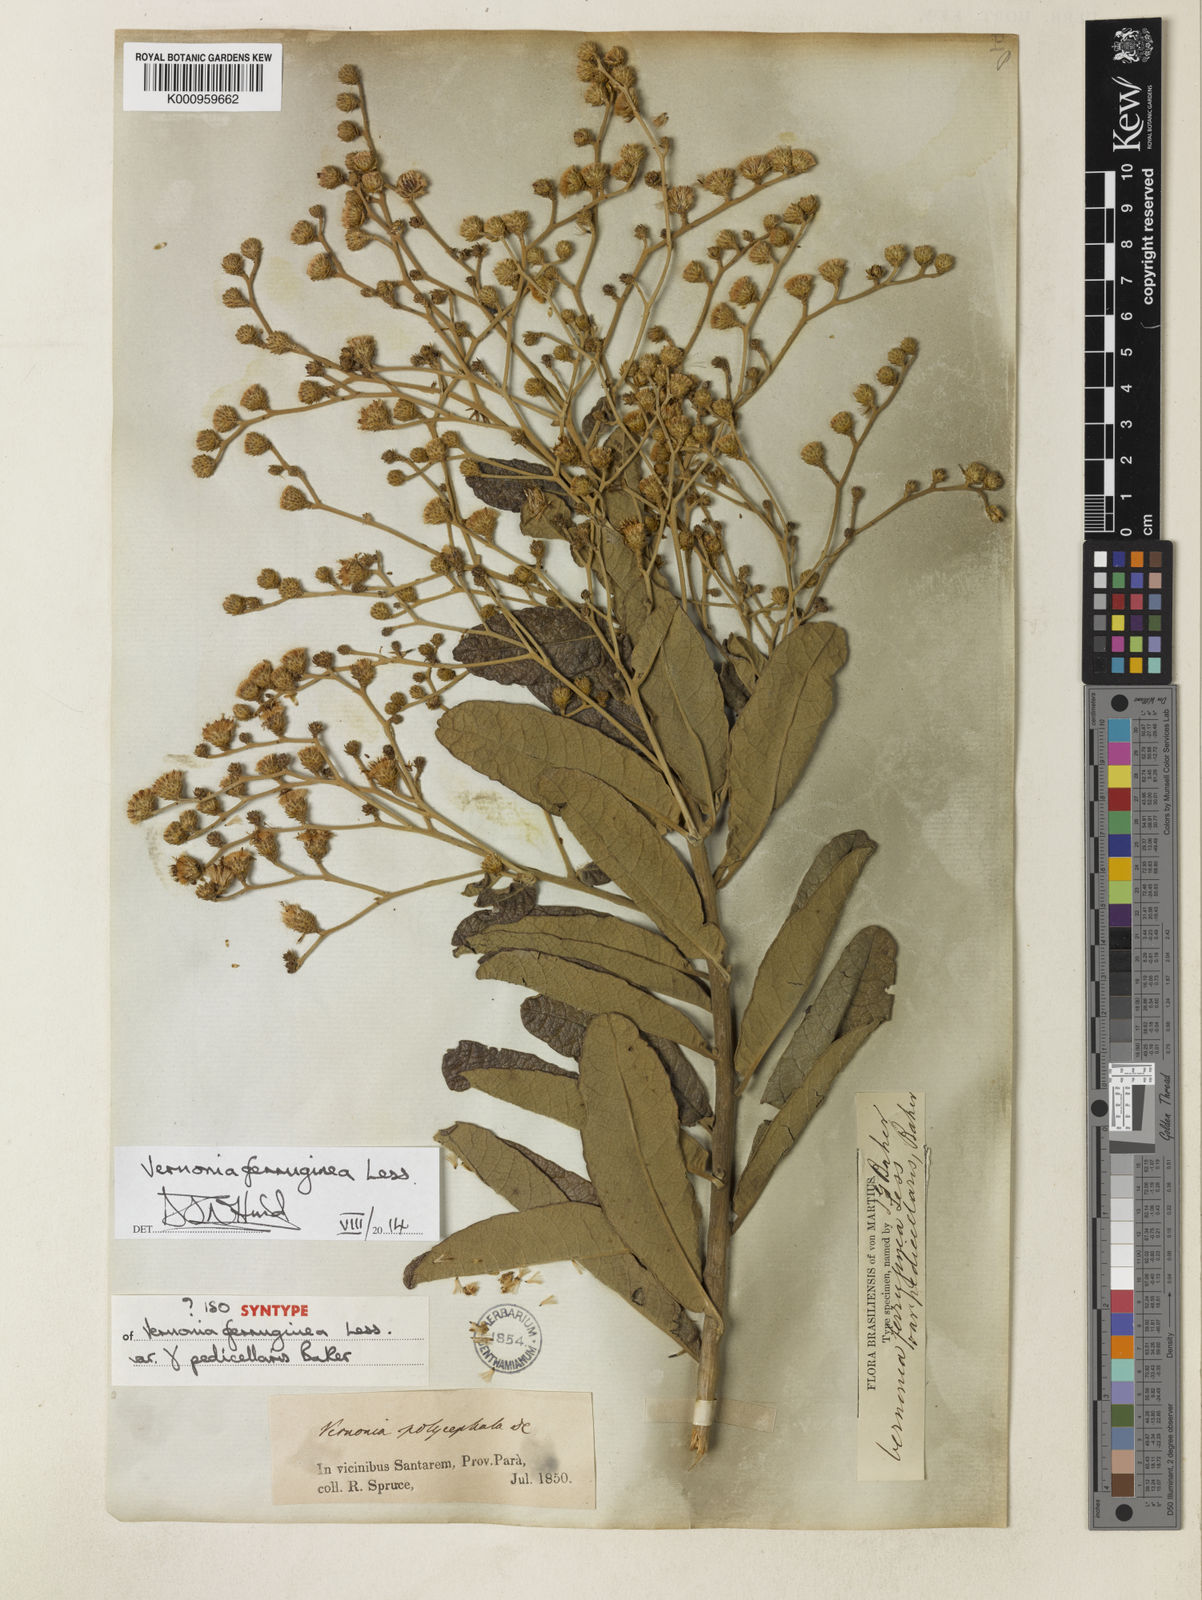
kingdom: Plantae
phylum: Tracheophyta
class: Magnoliopsida
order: Asterales
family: Asteraceae
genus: Vernonanthura
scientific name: Vernonanthura ferruginea
